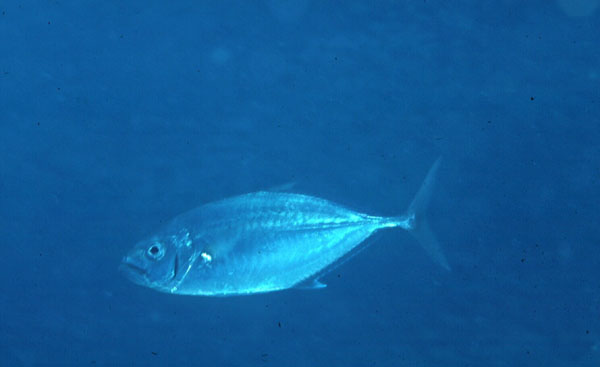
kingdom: Animalia
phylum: Chordata
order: Perciformes
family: Carangidae
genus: Carangoides
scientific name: Carangoides plagiotaenia
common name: Barcheek trevally
